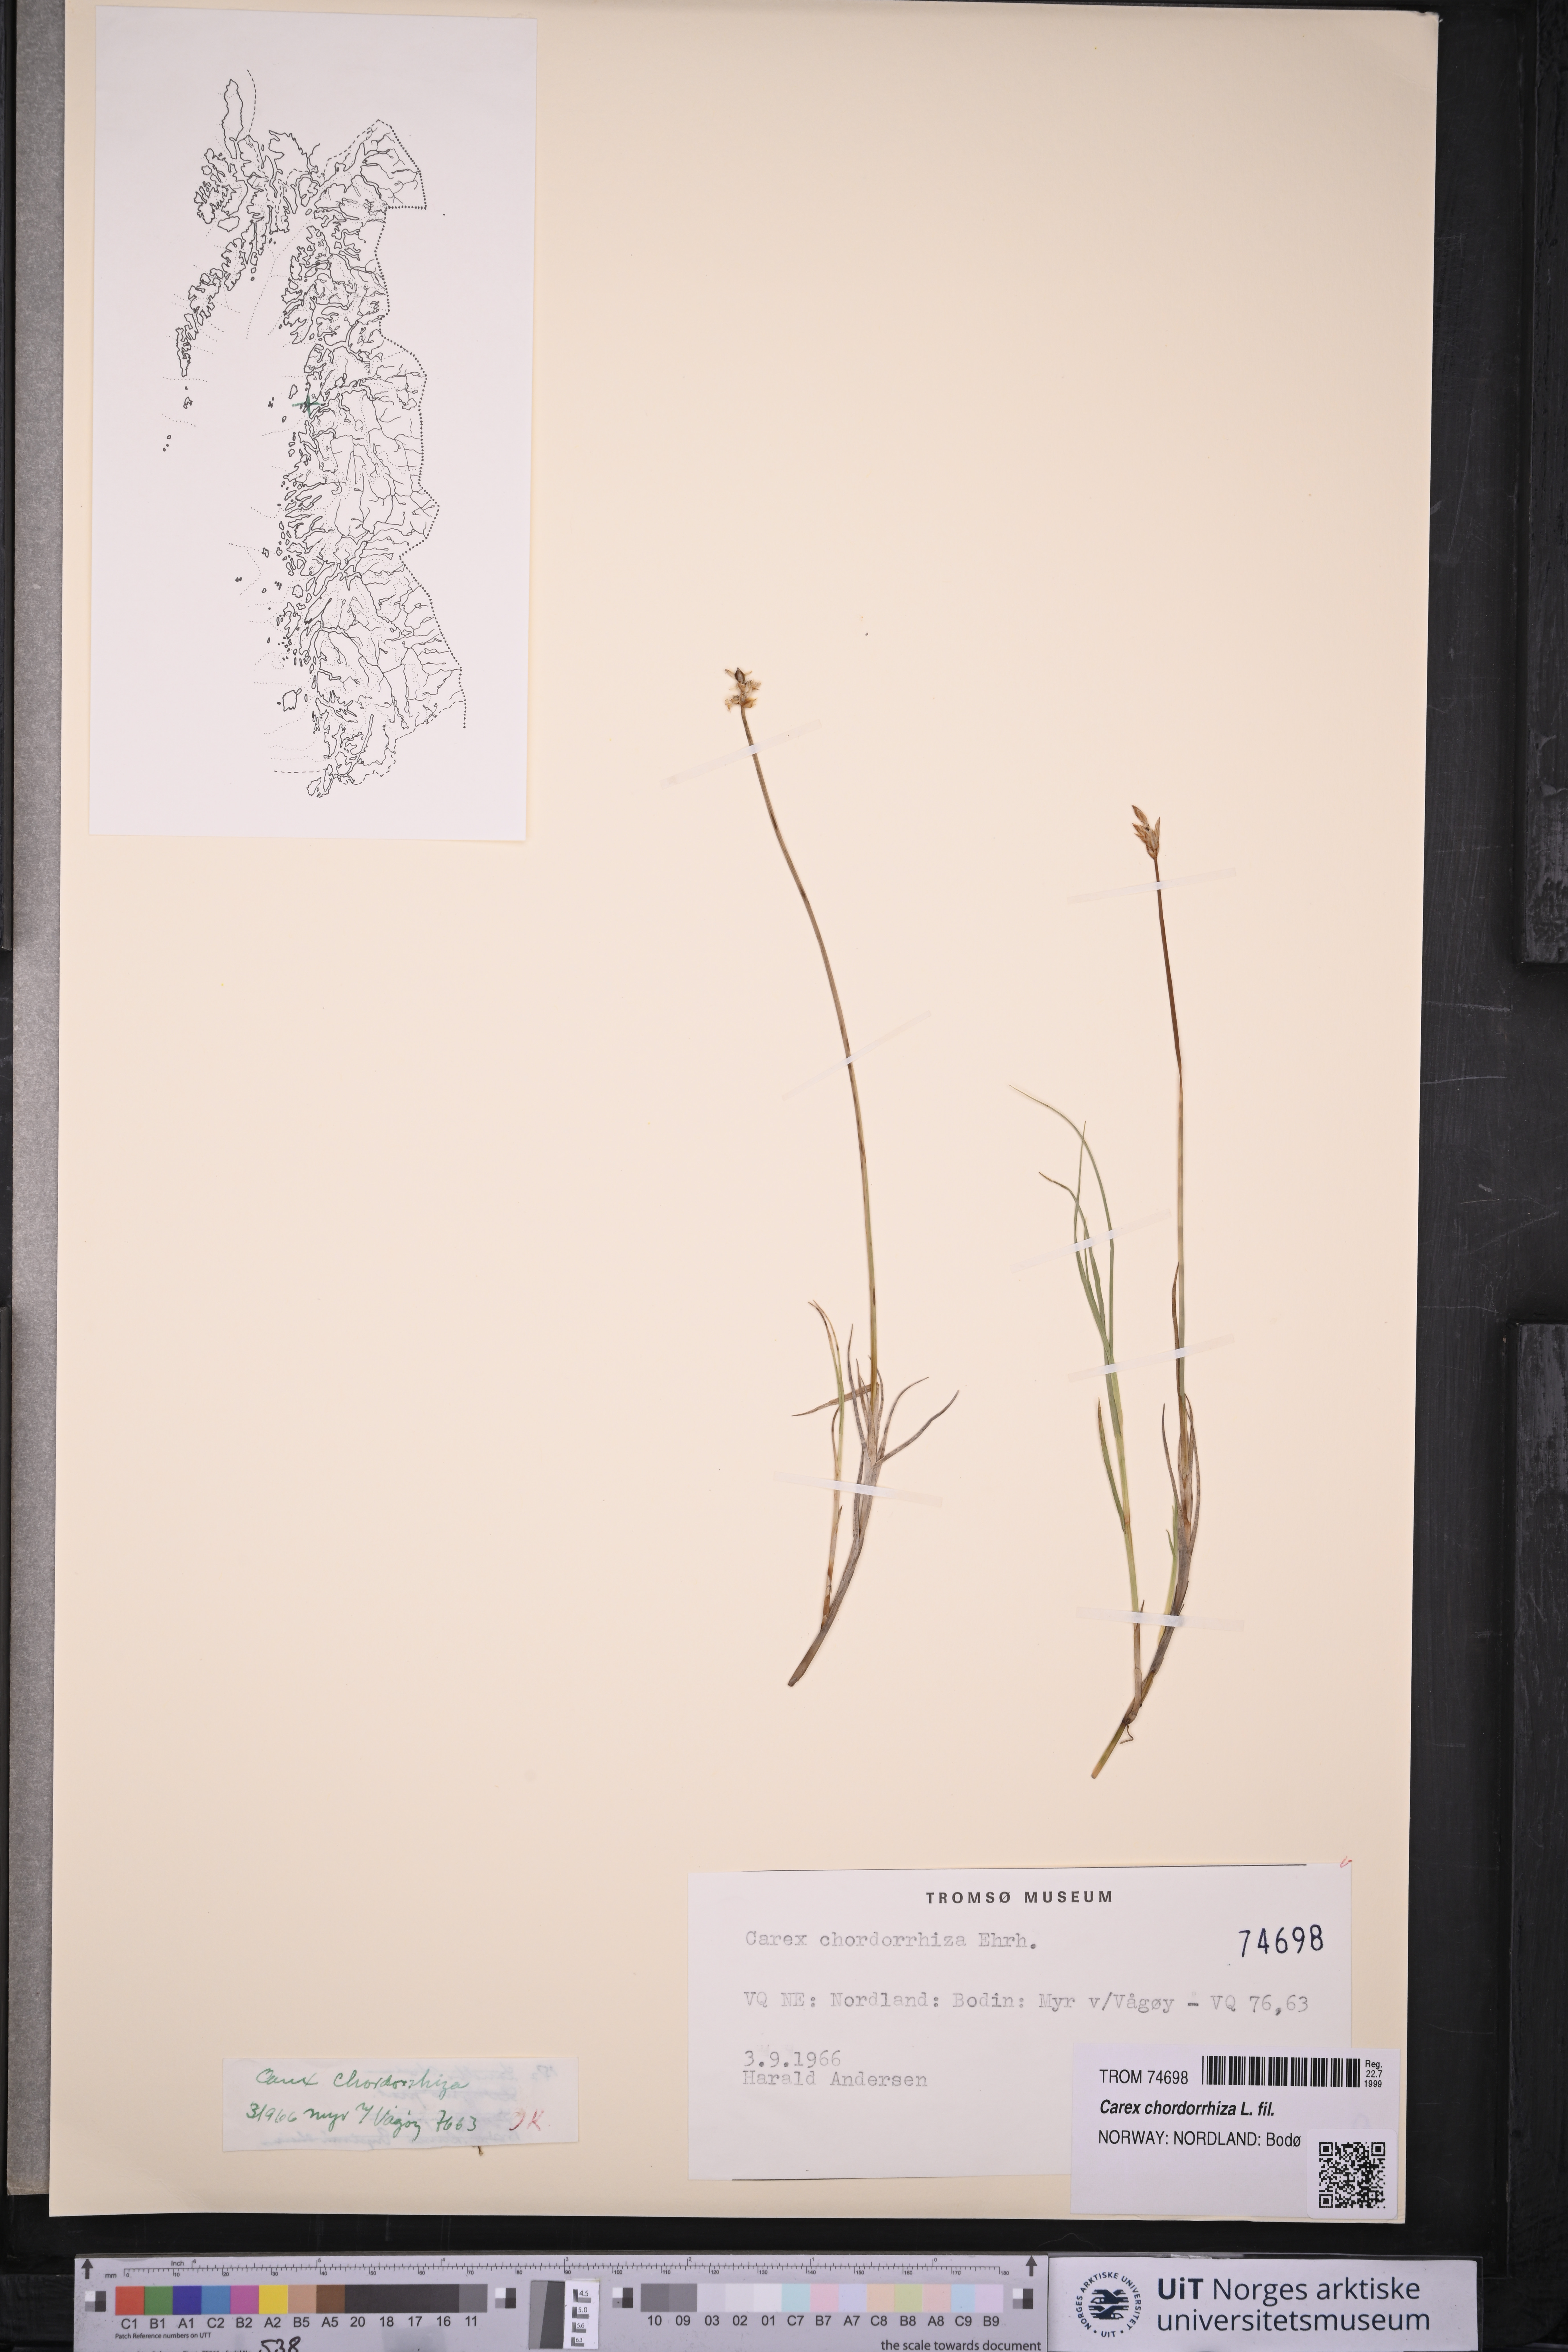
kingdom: Plantae
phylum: Tracheophyta
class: Liliopsida
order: Poales
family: Cyperaceae
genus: Carex
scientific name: Carex chordorrhiza
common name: String sedge
